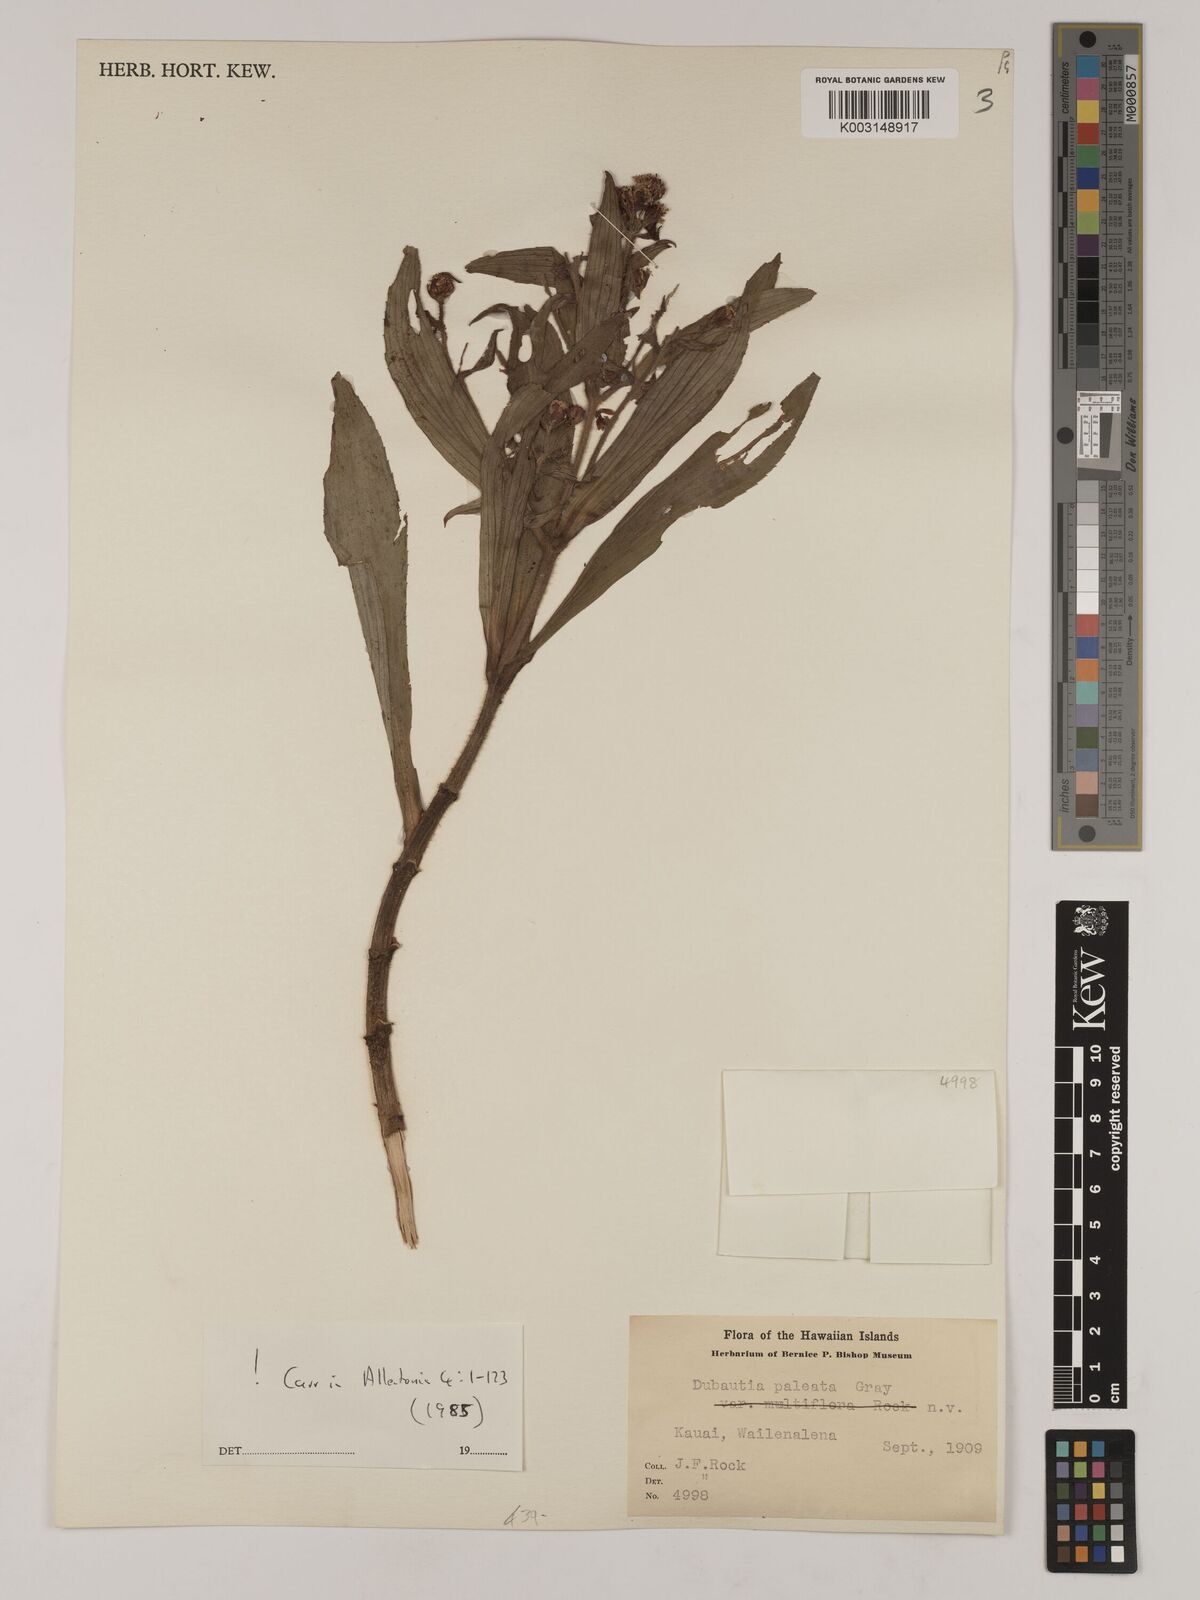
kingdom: Plantae
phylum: Tracheophyta
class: Magnoliopsida
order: Asterales
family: Asteraceae
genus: Dubautia
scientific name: Dubautia paleata
